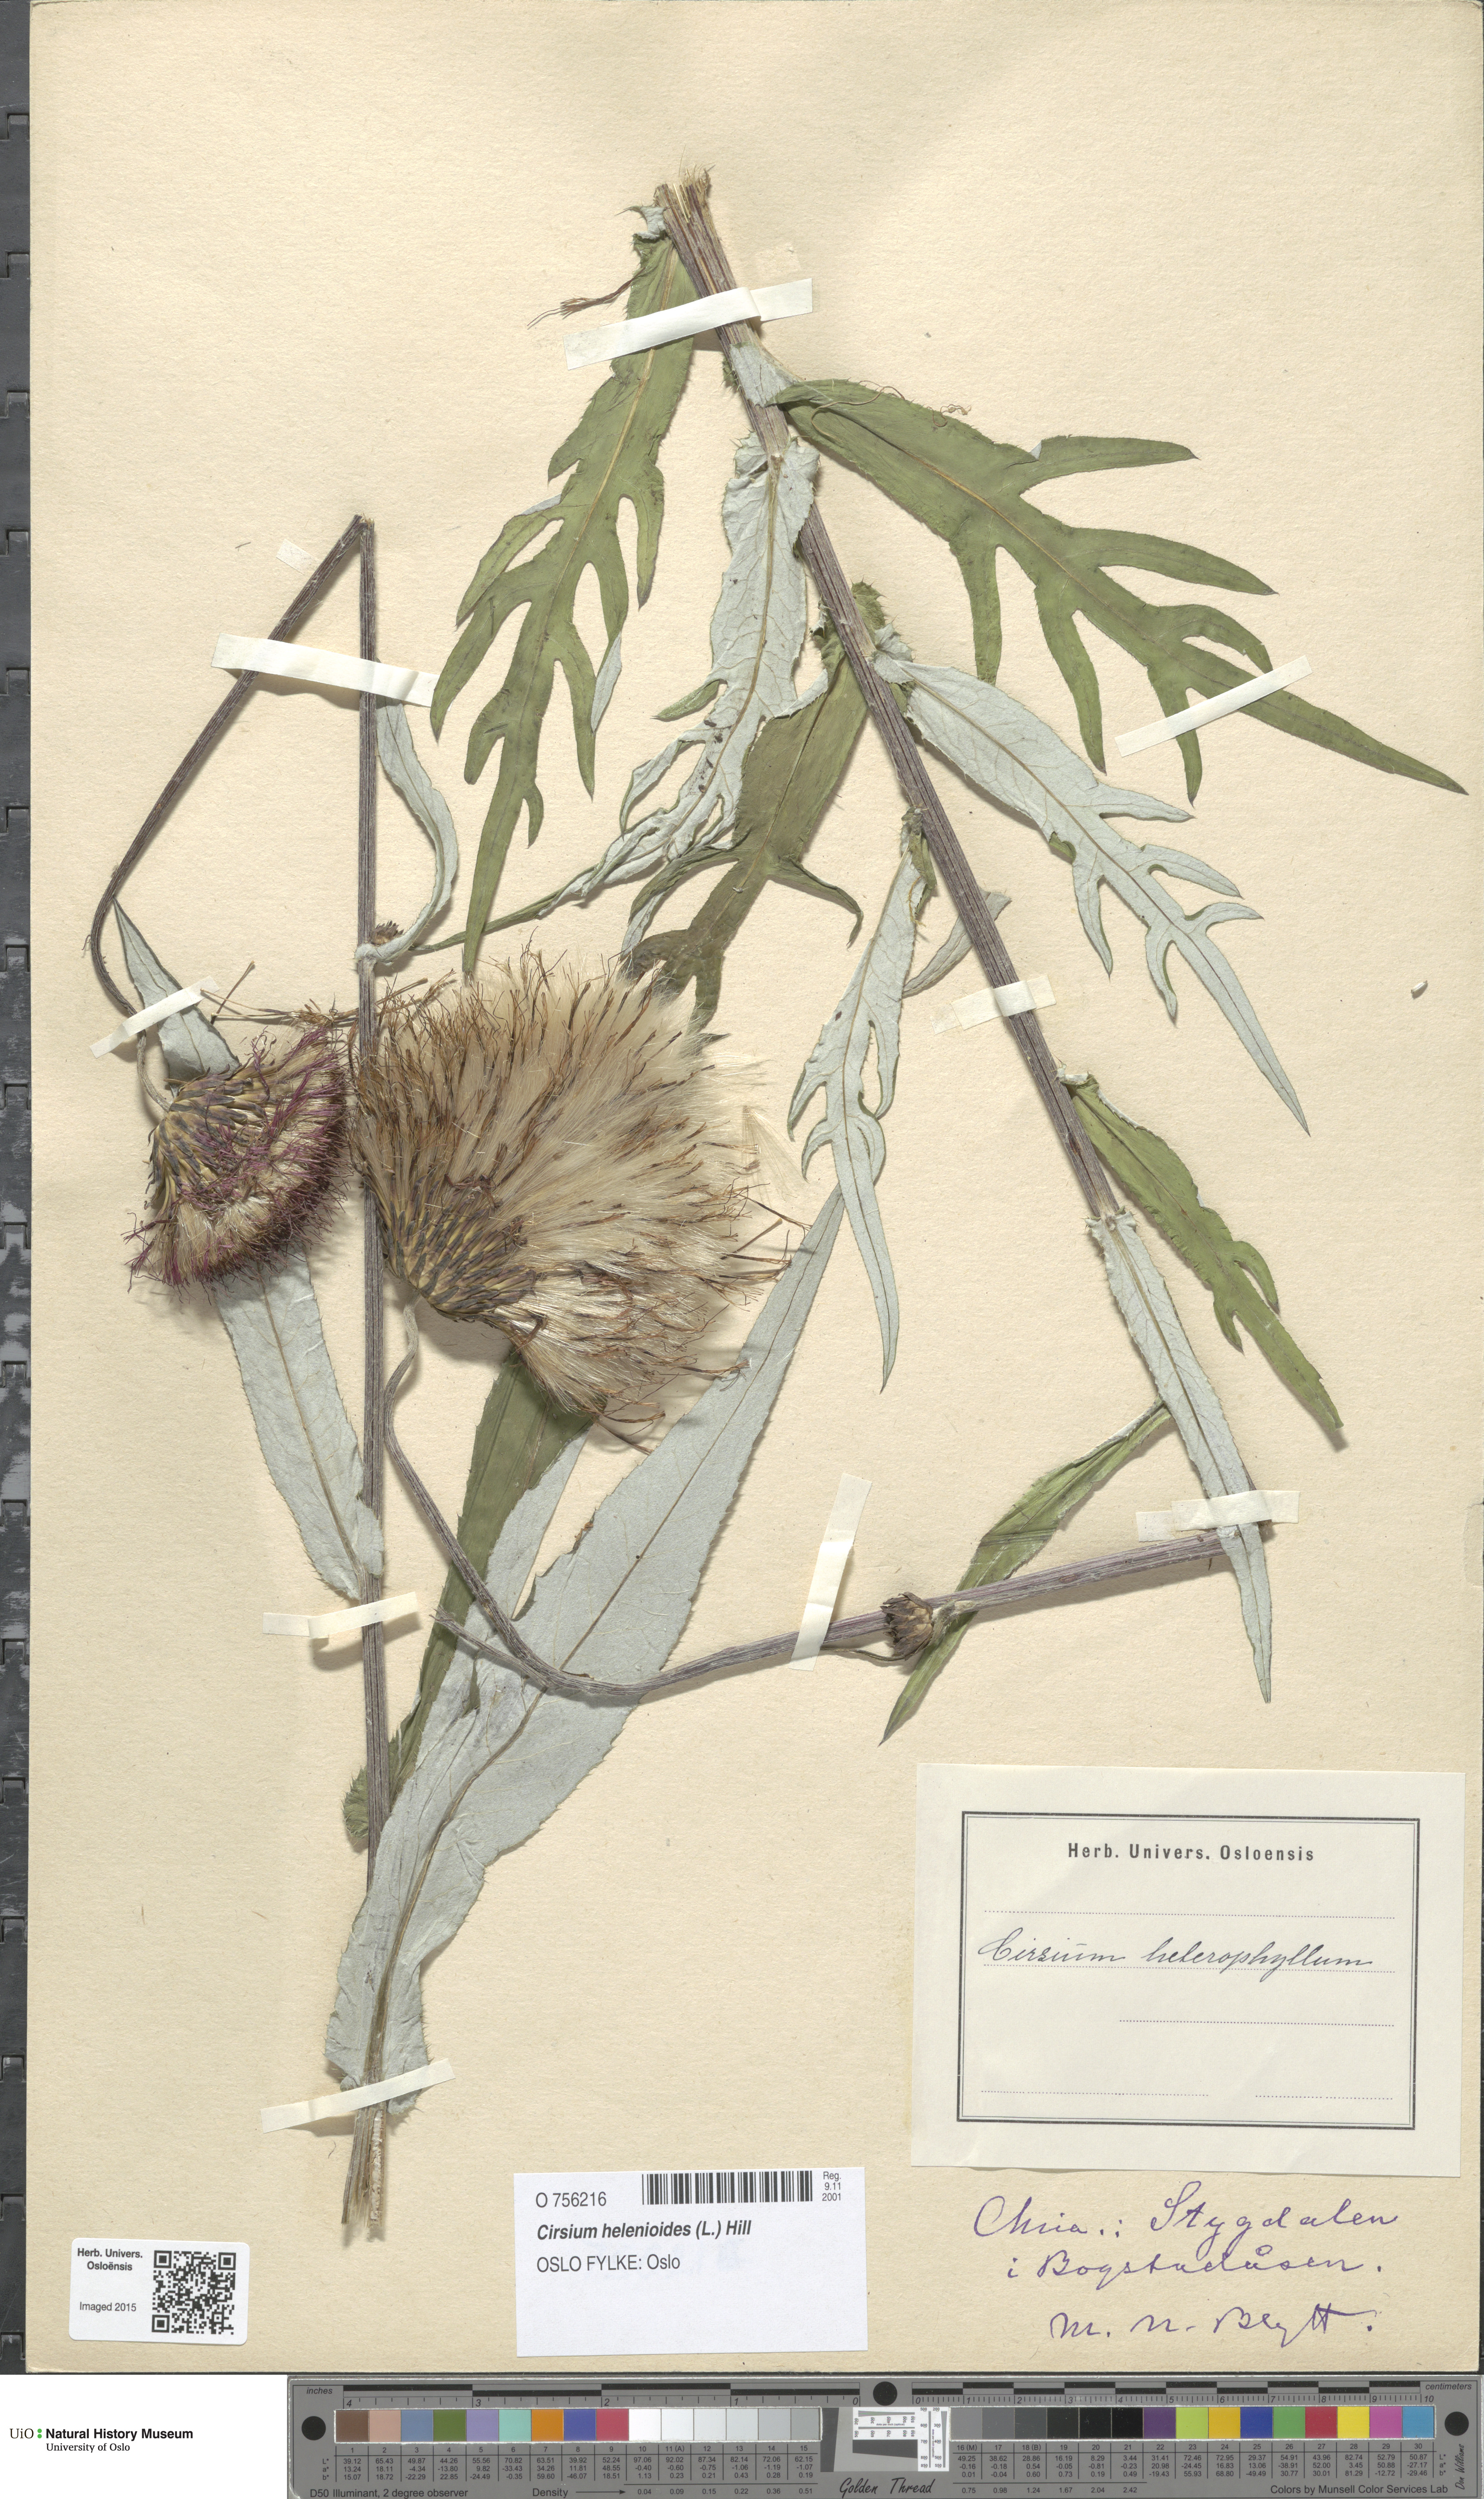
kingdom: Plantae
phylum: Tracheophyta
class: Magnoliopsida
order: Asterales
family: Asteraceae
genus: Cirsium
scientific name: Cirsium heterophyllum
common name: Melancholy thistle
